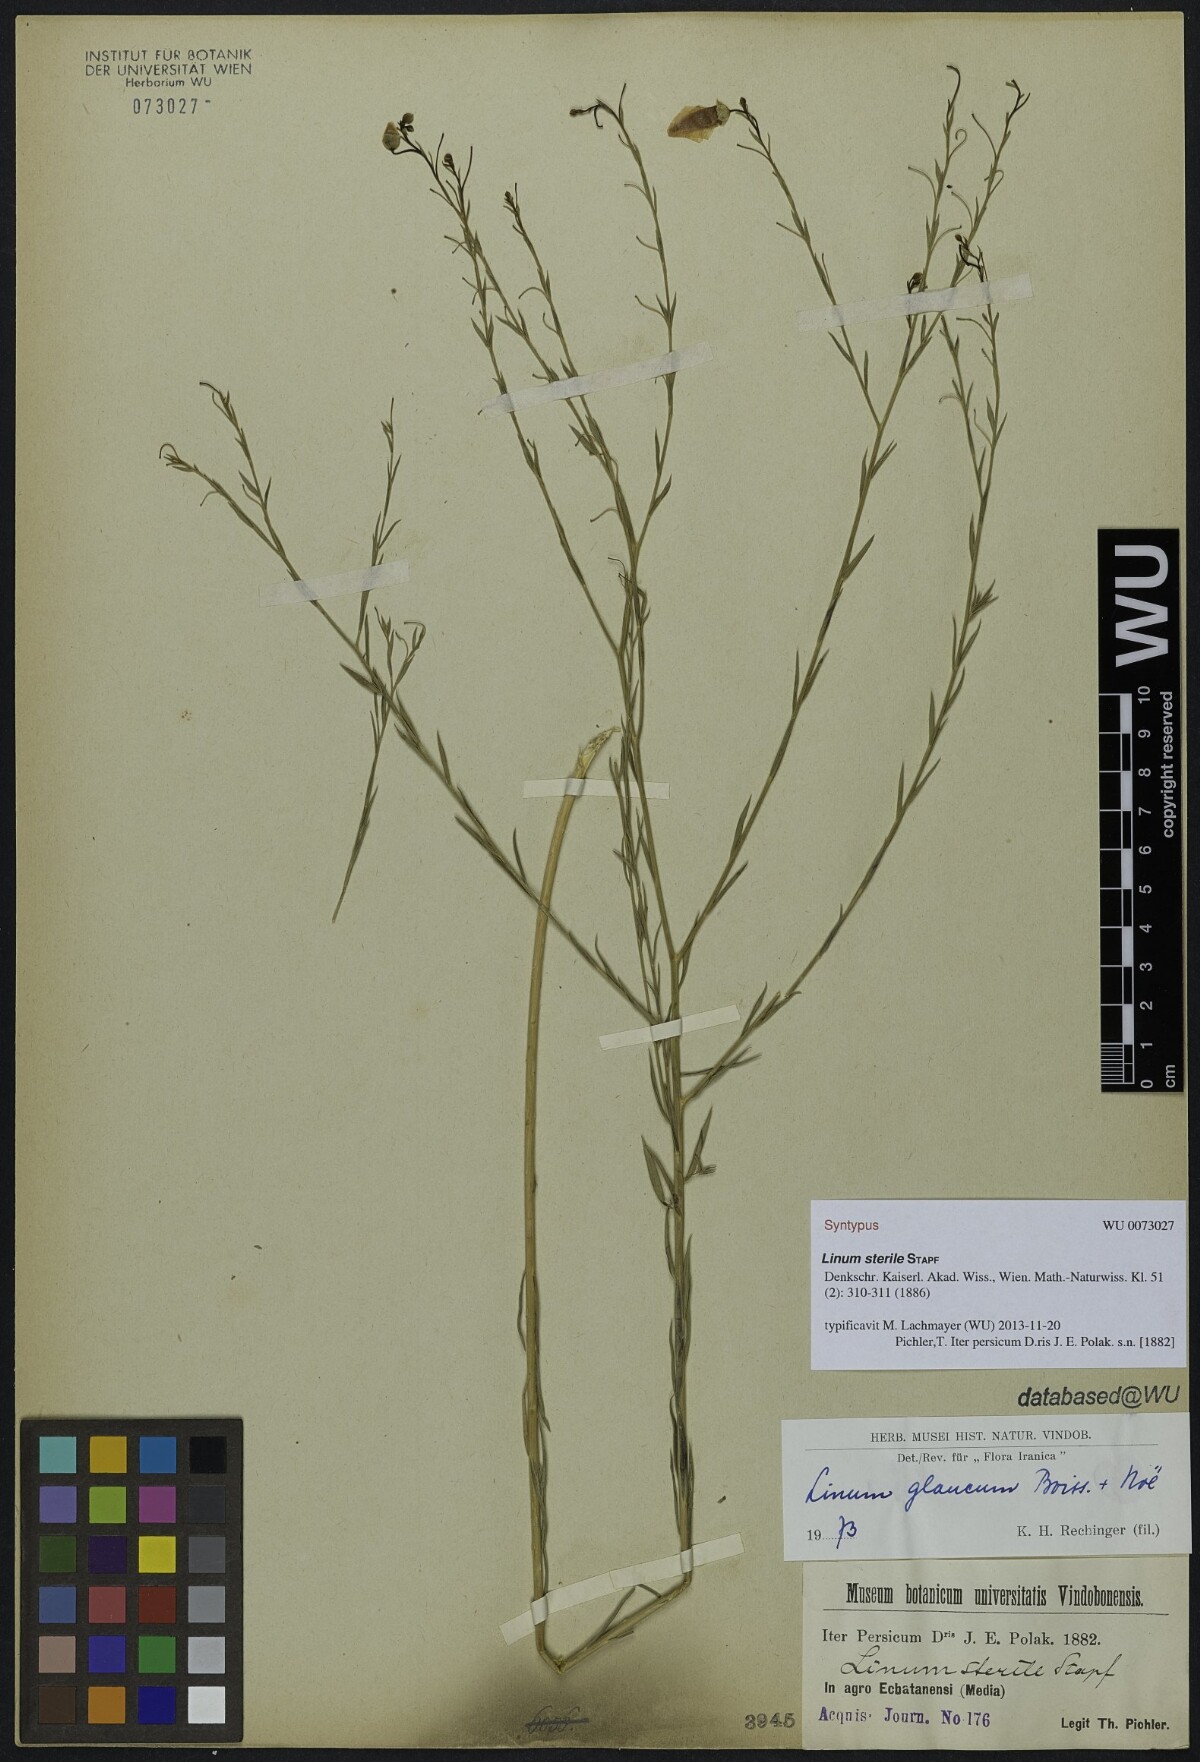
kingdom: Plantae
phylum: Tracheophyta
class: Magnoliopsida
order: Malpighiales
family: Linaceae
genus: Linum
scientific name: Linum glaucum
